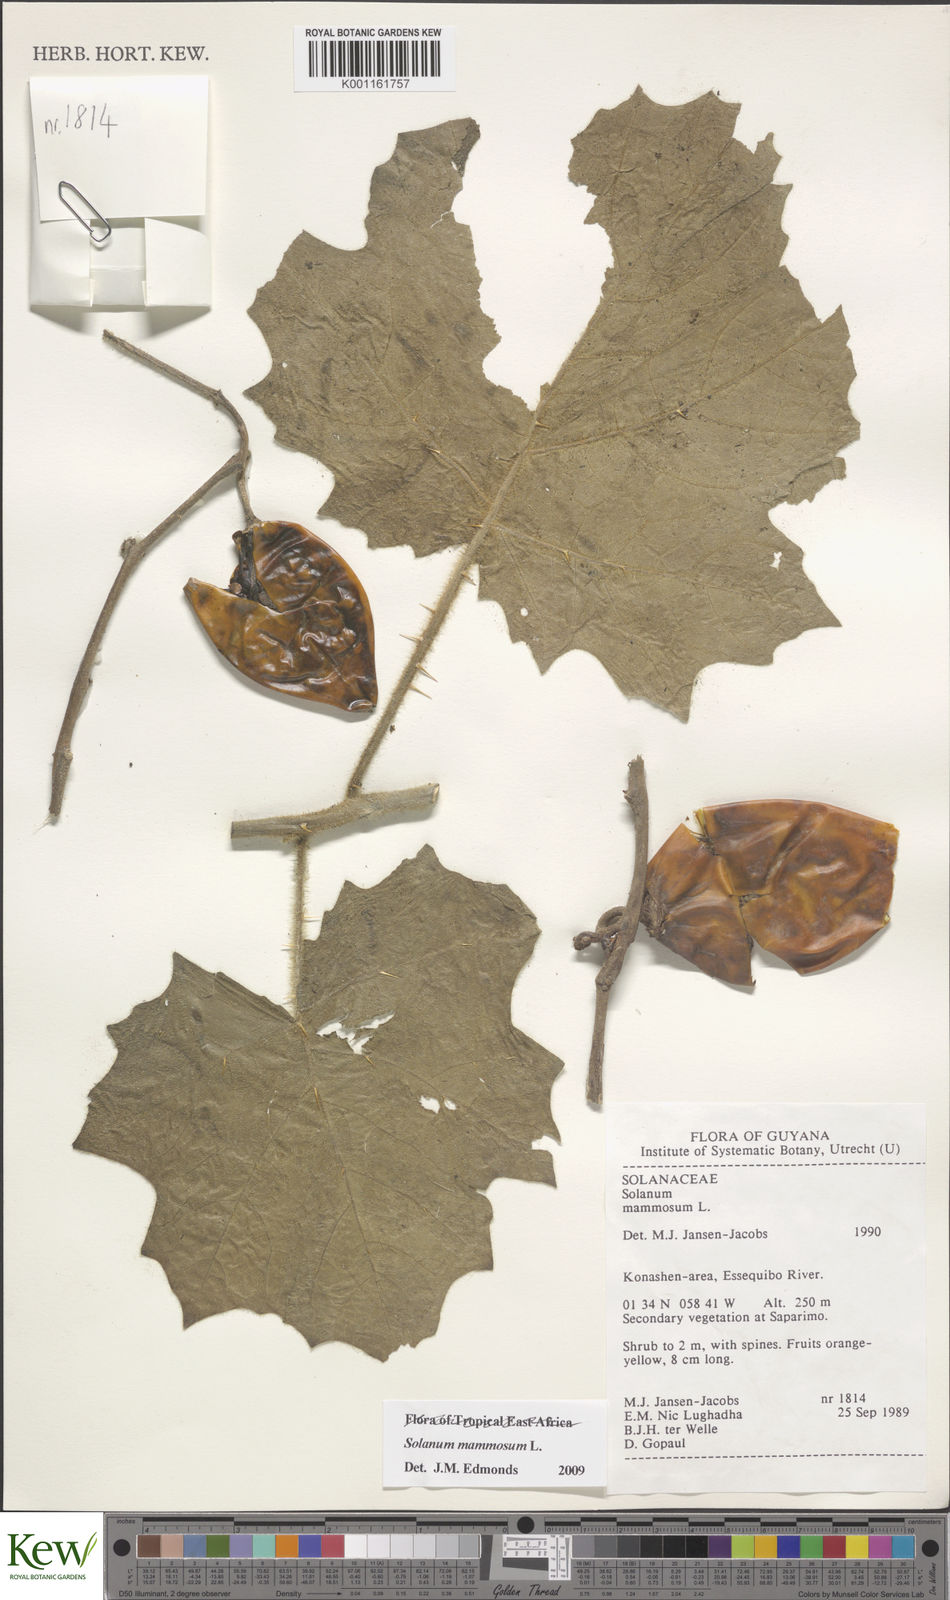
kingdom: Plantae
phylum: Tracheophyta
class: Magnoliopsida
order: Solanales
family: Solanaceae
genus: Solanum
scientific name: Solanum mammosum
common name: Nipple fruit
